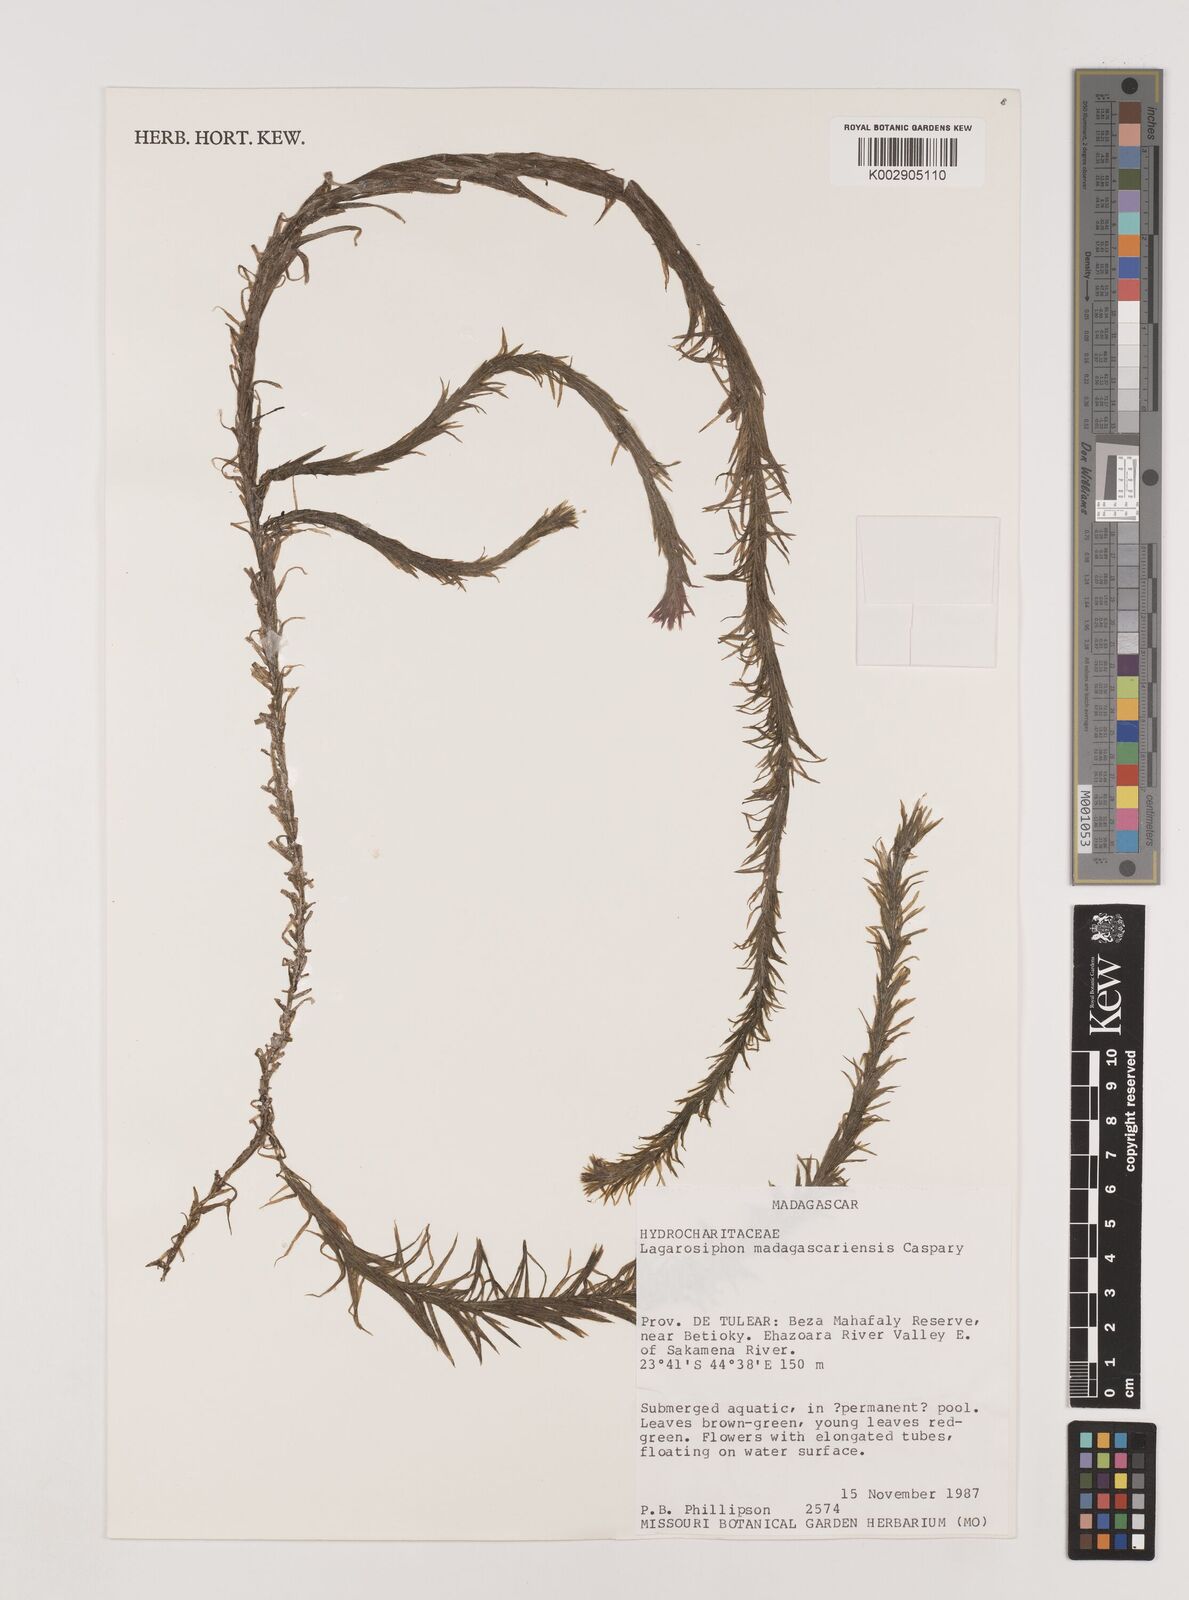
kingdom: Plantae
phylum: Tracheophyta
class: Liliopsida
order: Alismatales
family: Hydrocharitaceae
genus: Lagarosiphon
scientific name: Lagarosiphon madagascariensis
